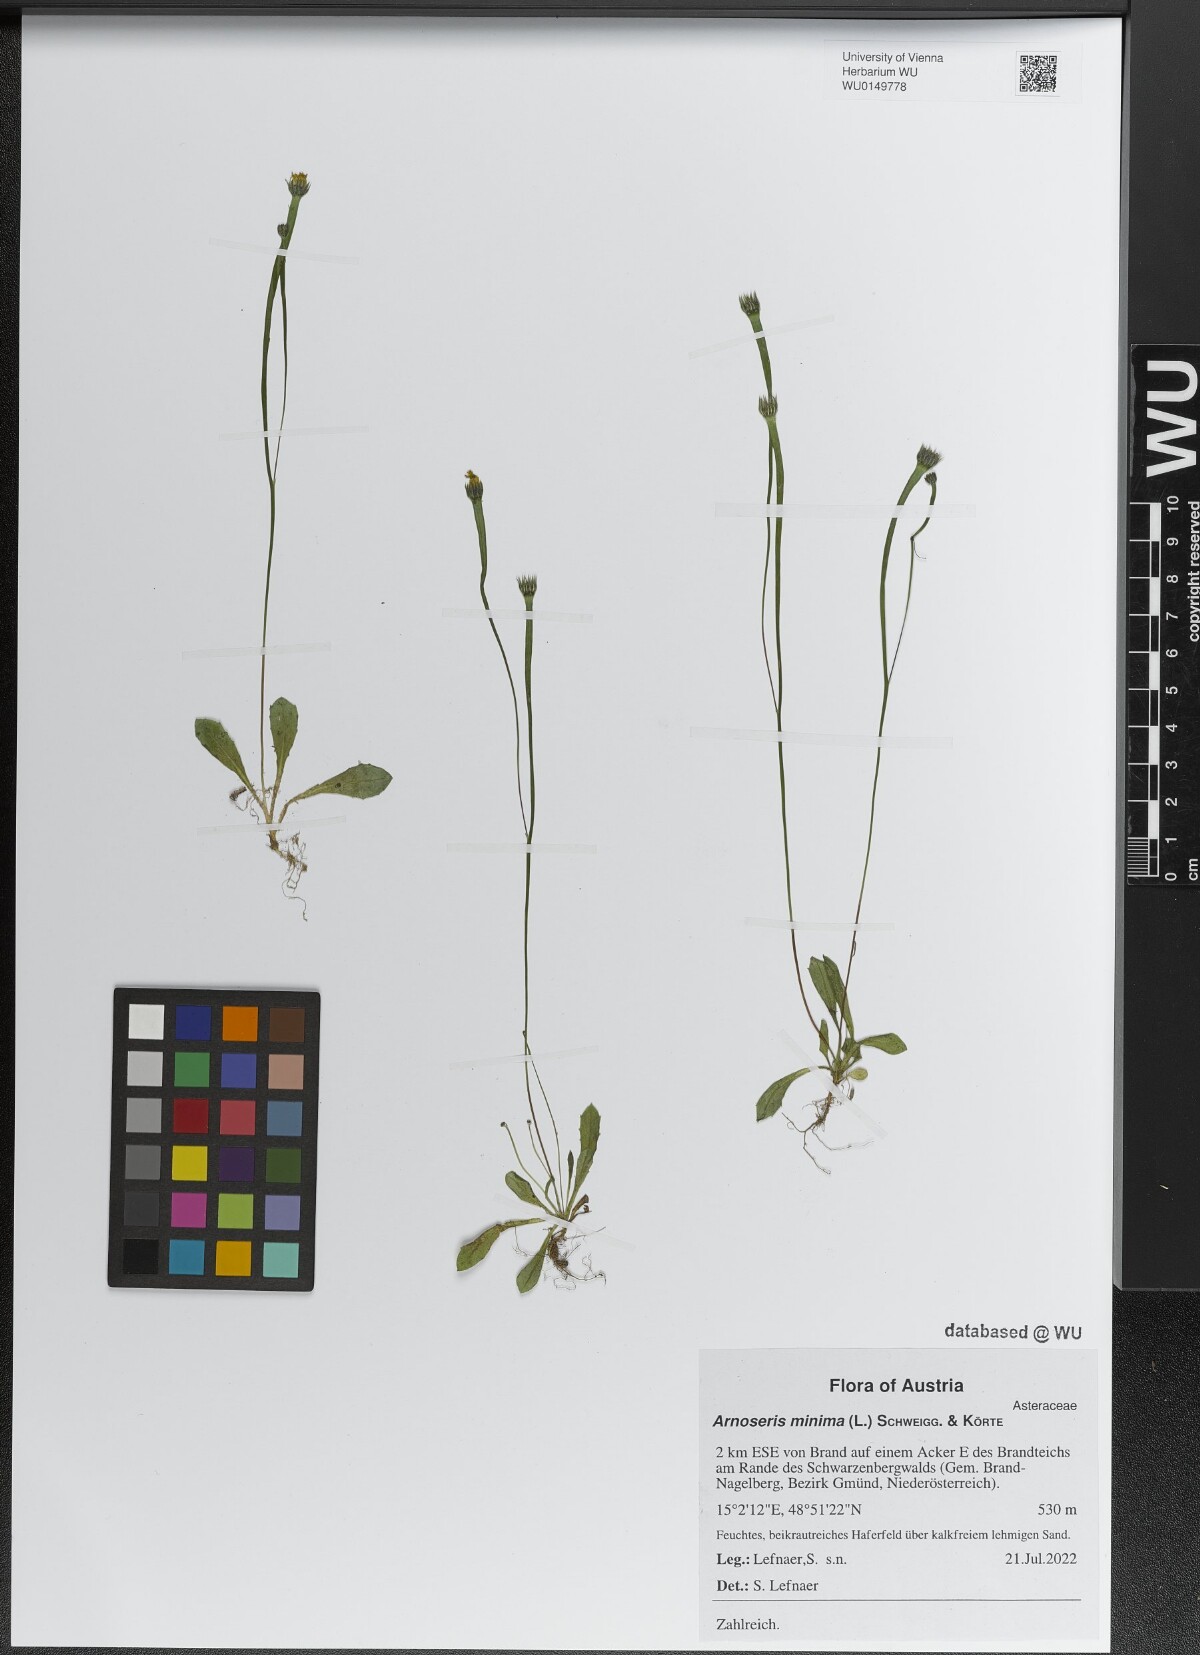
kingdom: Plantae
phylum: Tracheophyta
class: Magnoliopsida
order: Asterales
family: Asteraceae
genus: Arnoseris
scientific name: Arnoseris minima
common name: Lamb's succory
